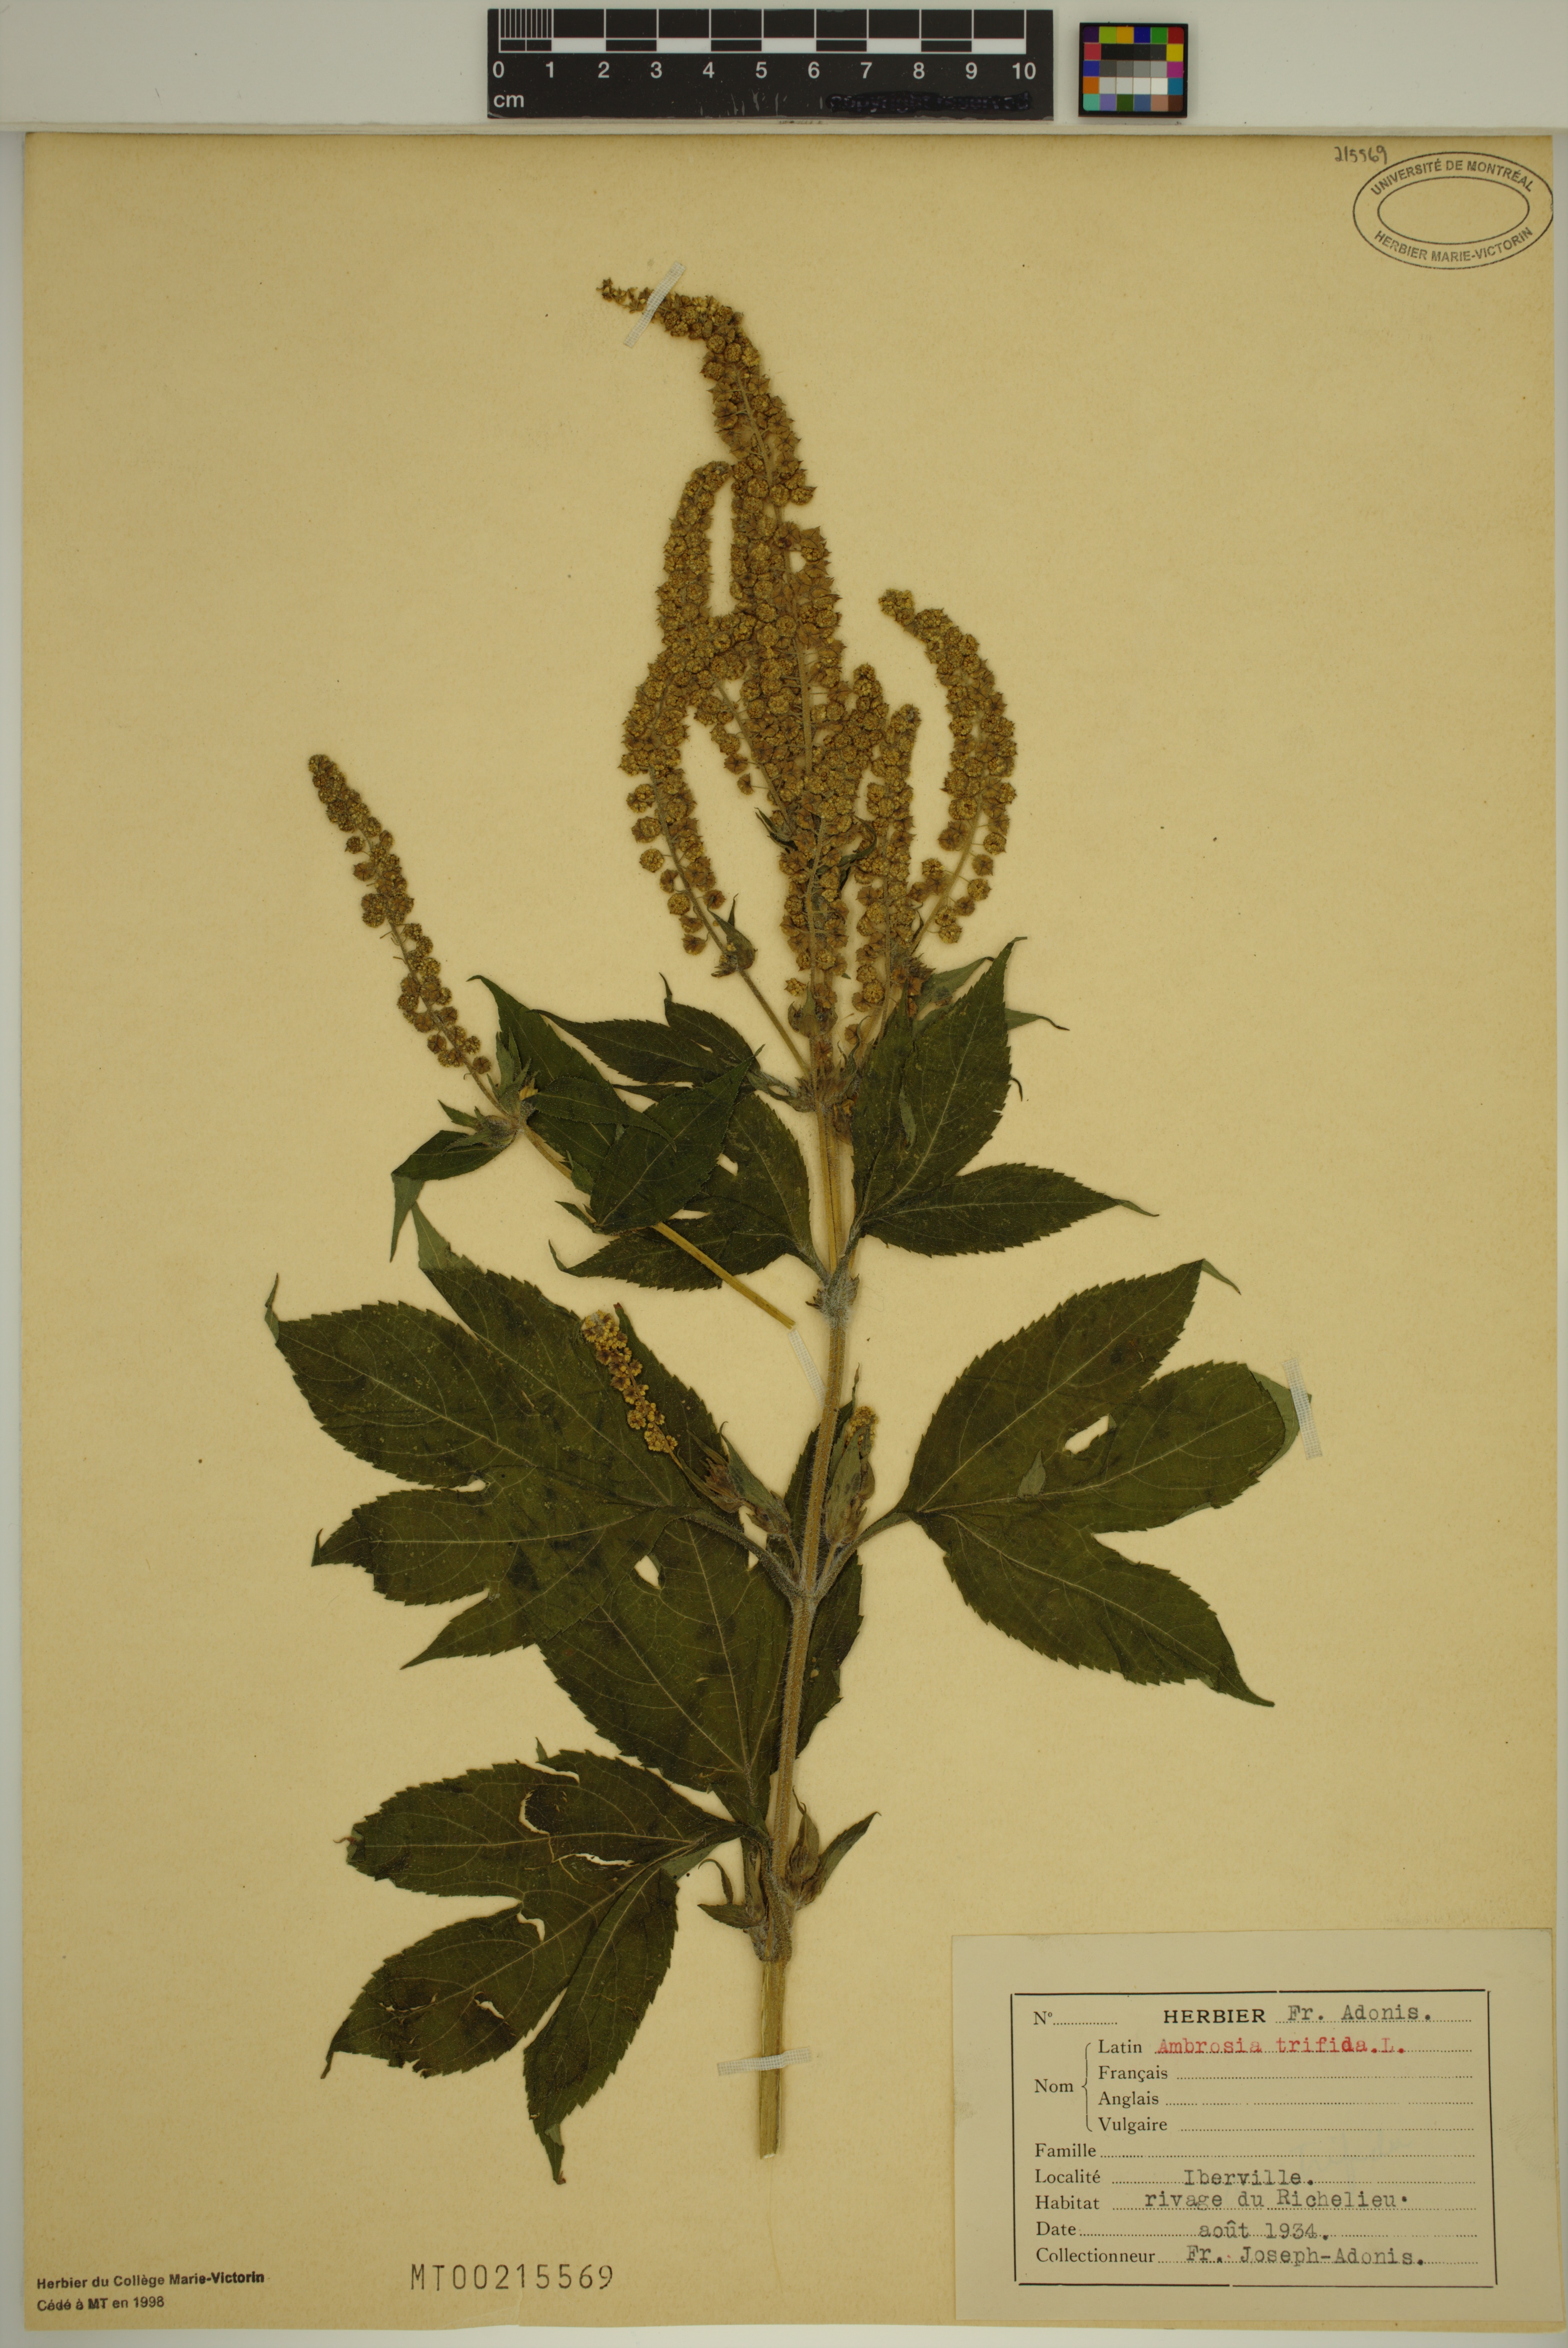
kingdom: Plantae
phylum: Tracheophyta
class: Magnoliopsida
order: Asterales
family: Asteraceae
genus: Ambrosia
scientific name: Ambrosia trifida
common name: Giant ragweed
